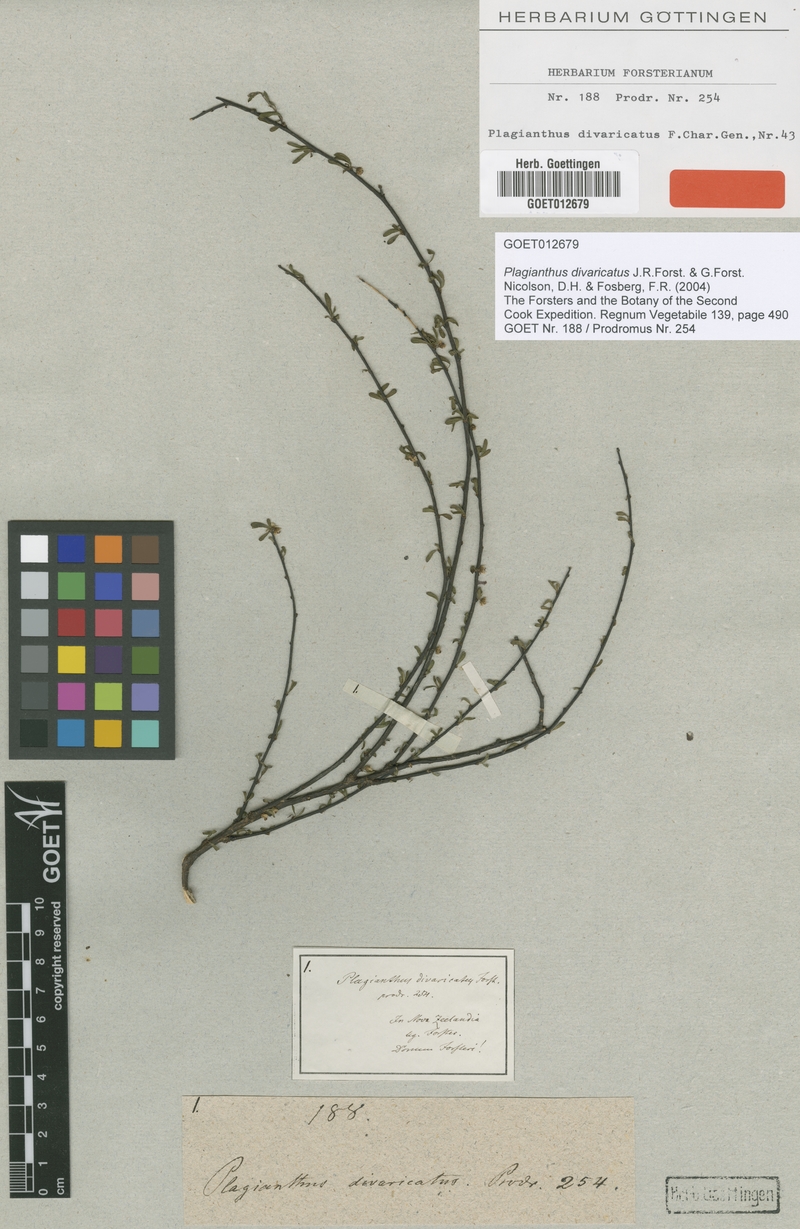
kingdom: Plantae
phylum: Tracheophyta
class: Magnoliopsida
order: Malvales
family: Malvaceae
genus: Plagianthus
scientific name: Plagianthus divaricatus
